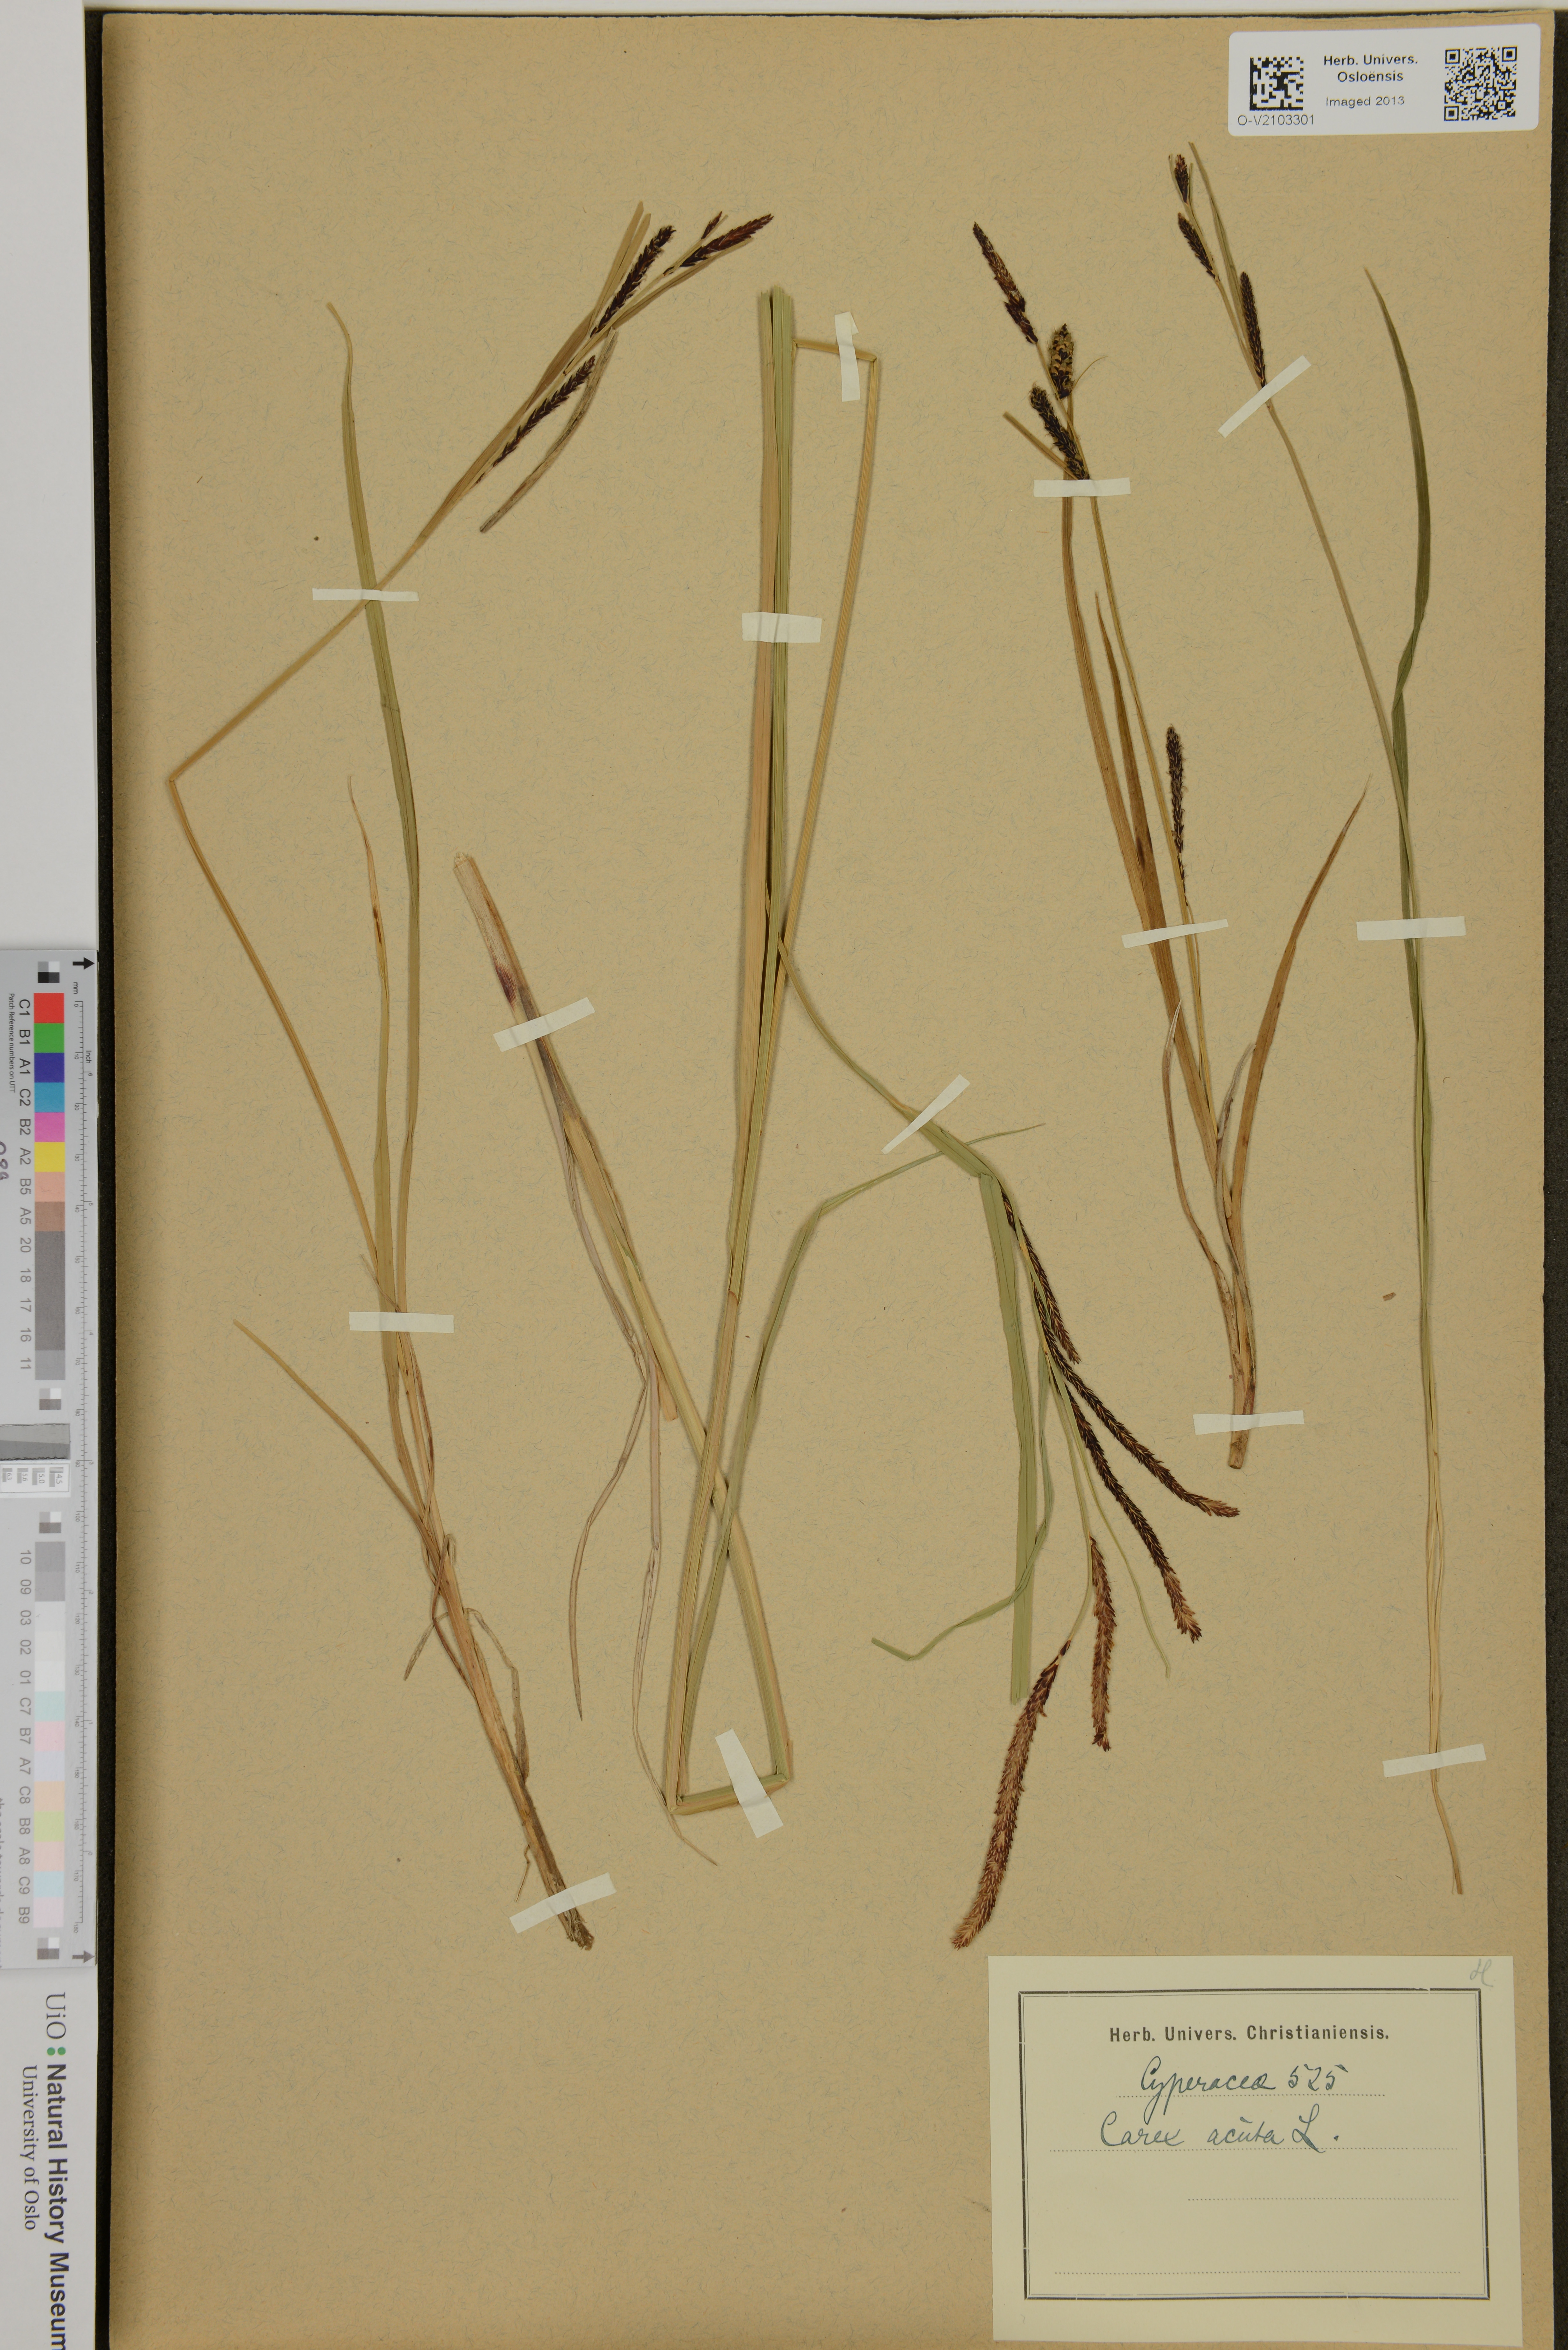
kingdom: Plantae
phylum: Tracheophyta
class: Liliopsida
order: Poales
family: Cyperaceae
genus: Carex
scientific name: Carex acuta
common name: Slender tufted-sedge
